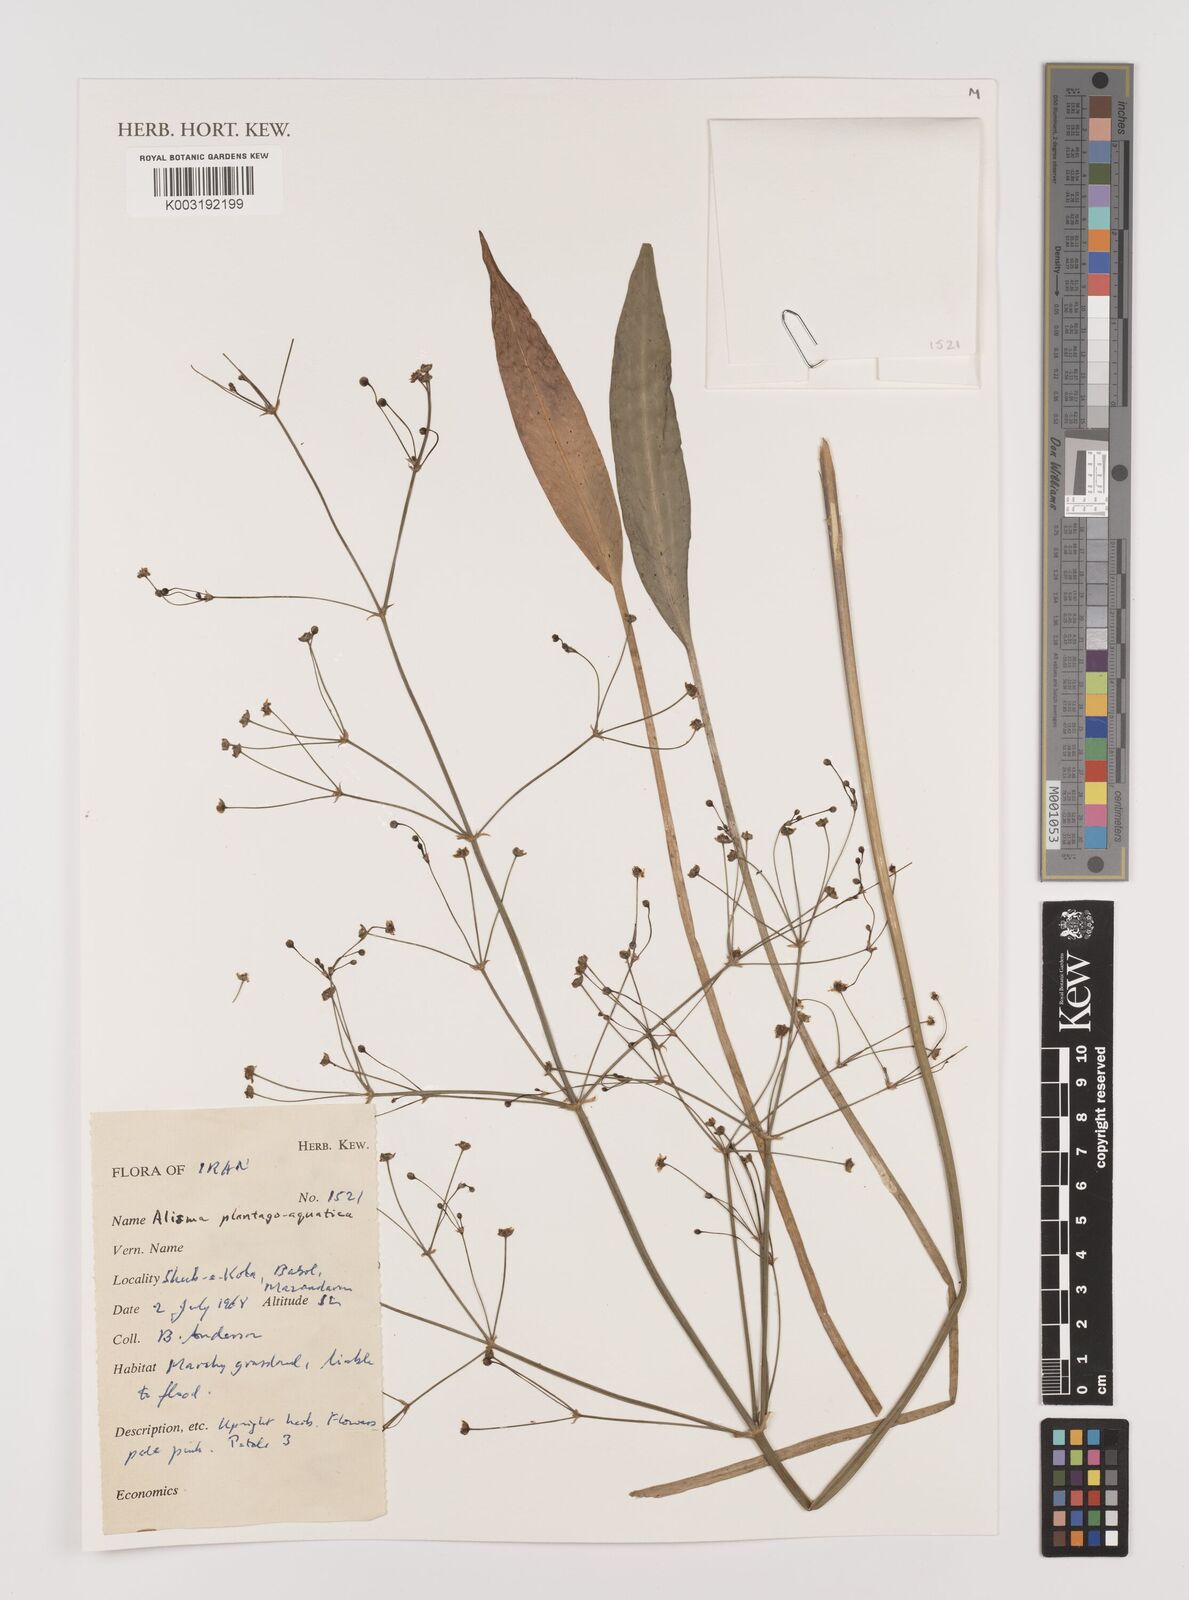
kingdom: Plantae
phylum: Tracheophyta
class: Liliopsida
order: Alismatales
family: Alismataceae
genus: Alisma
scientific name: Alisma plantago-aquatica
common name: Water-plantain
